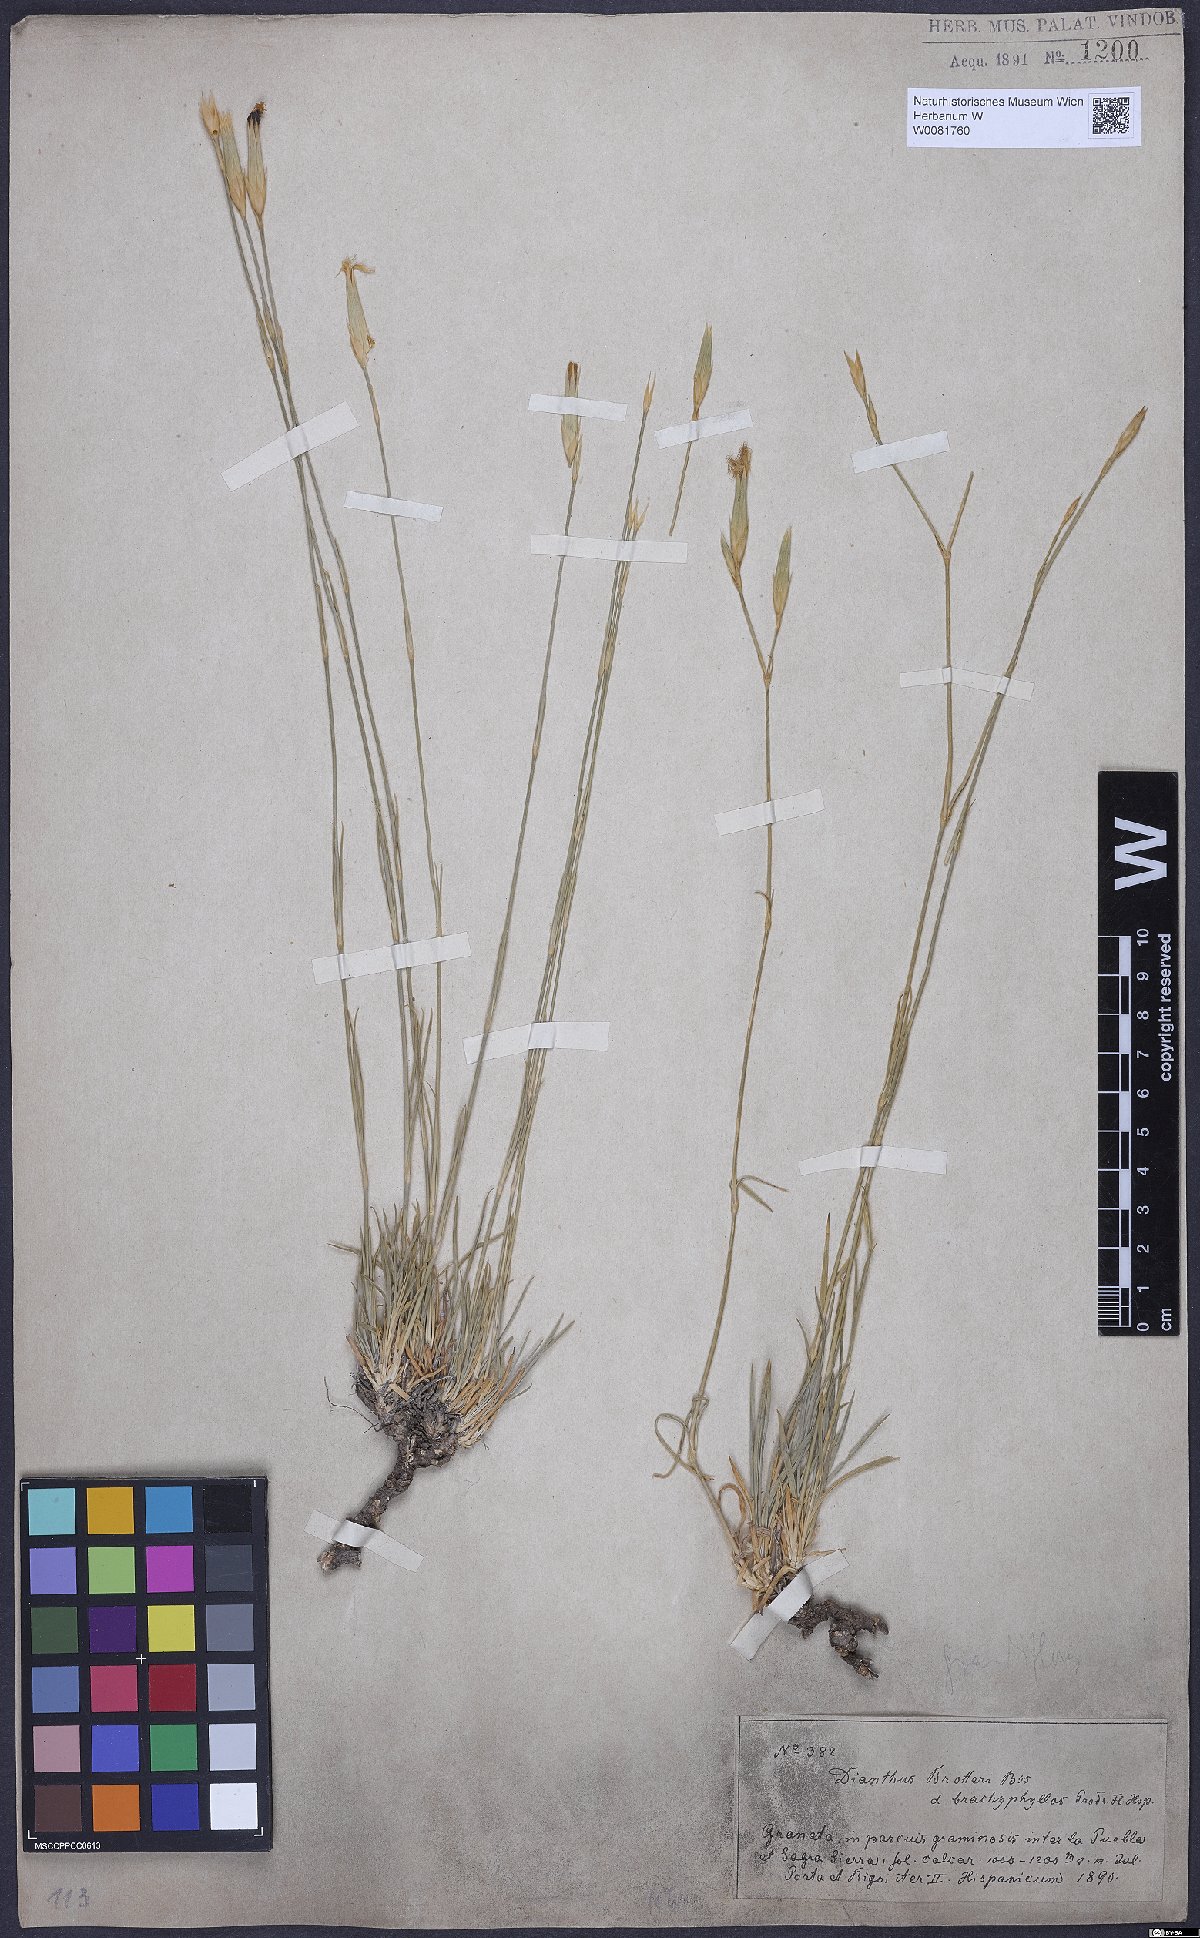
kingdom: Plantae
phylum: Tracheophyta
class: Magnoliopsida
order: Caryophyllales
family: Caryophyllaceae
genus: Dianthus
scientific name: Dianthus broteri
